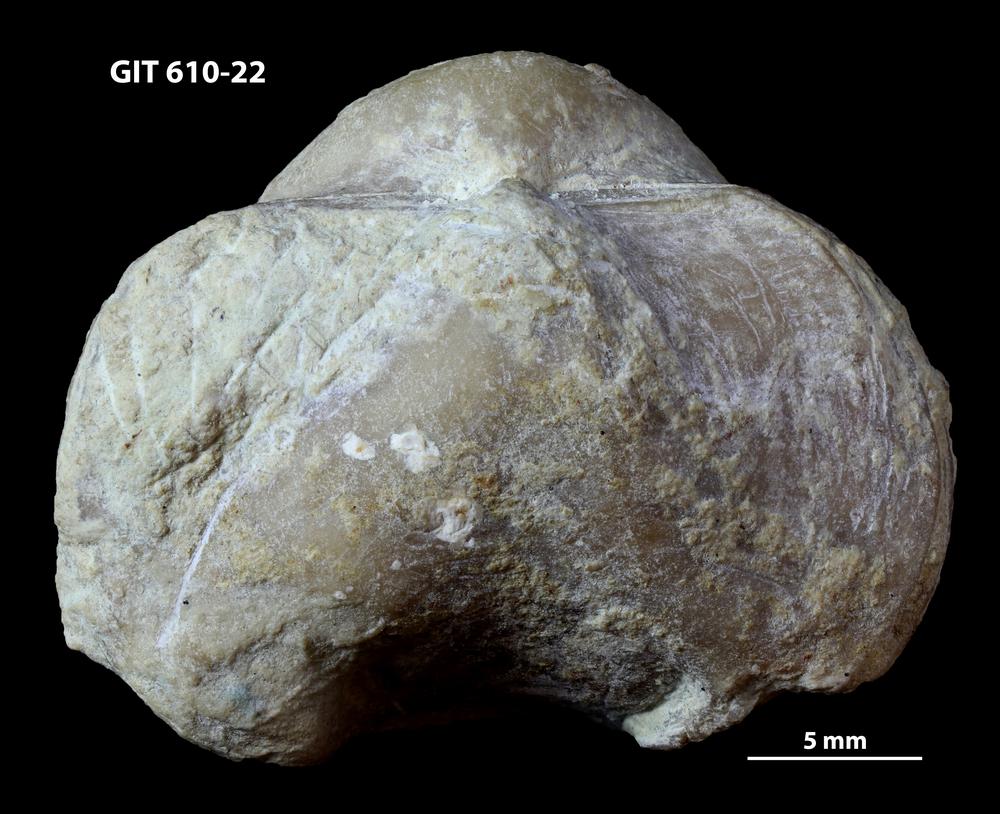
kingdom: Animalia
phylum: Brachiopoda
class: Rhynchonellata
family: Triplesiidae
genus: Triplesia
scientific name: Triplesia insularis
